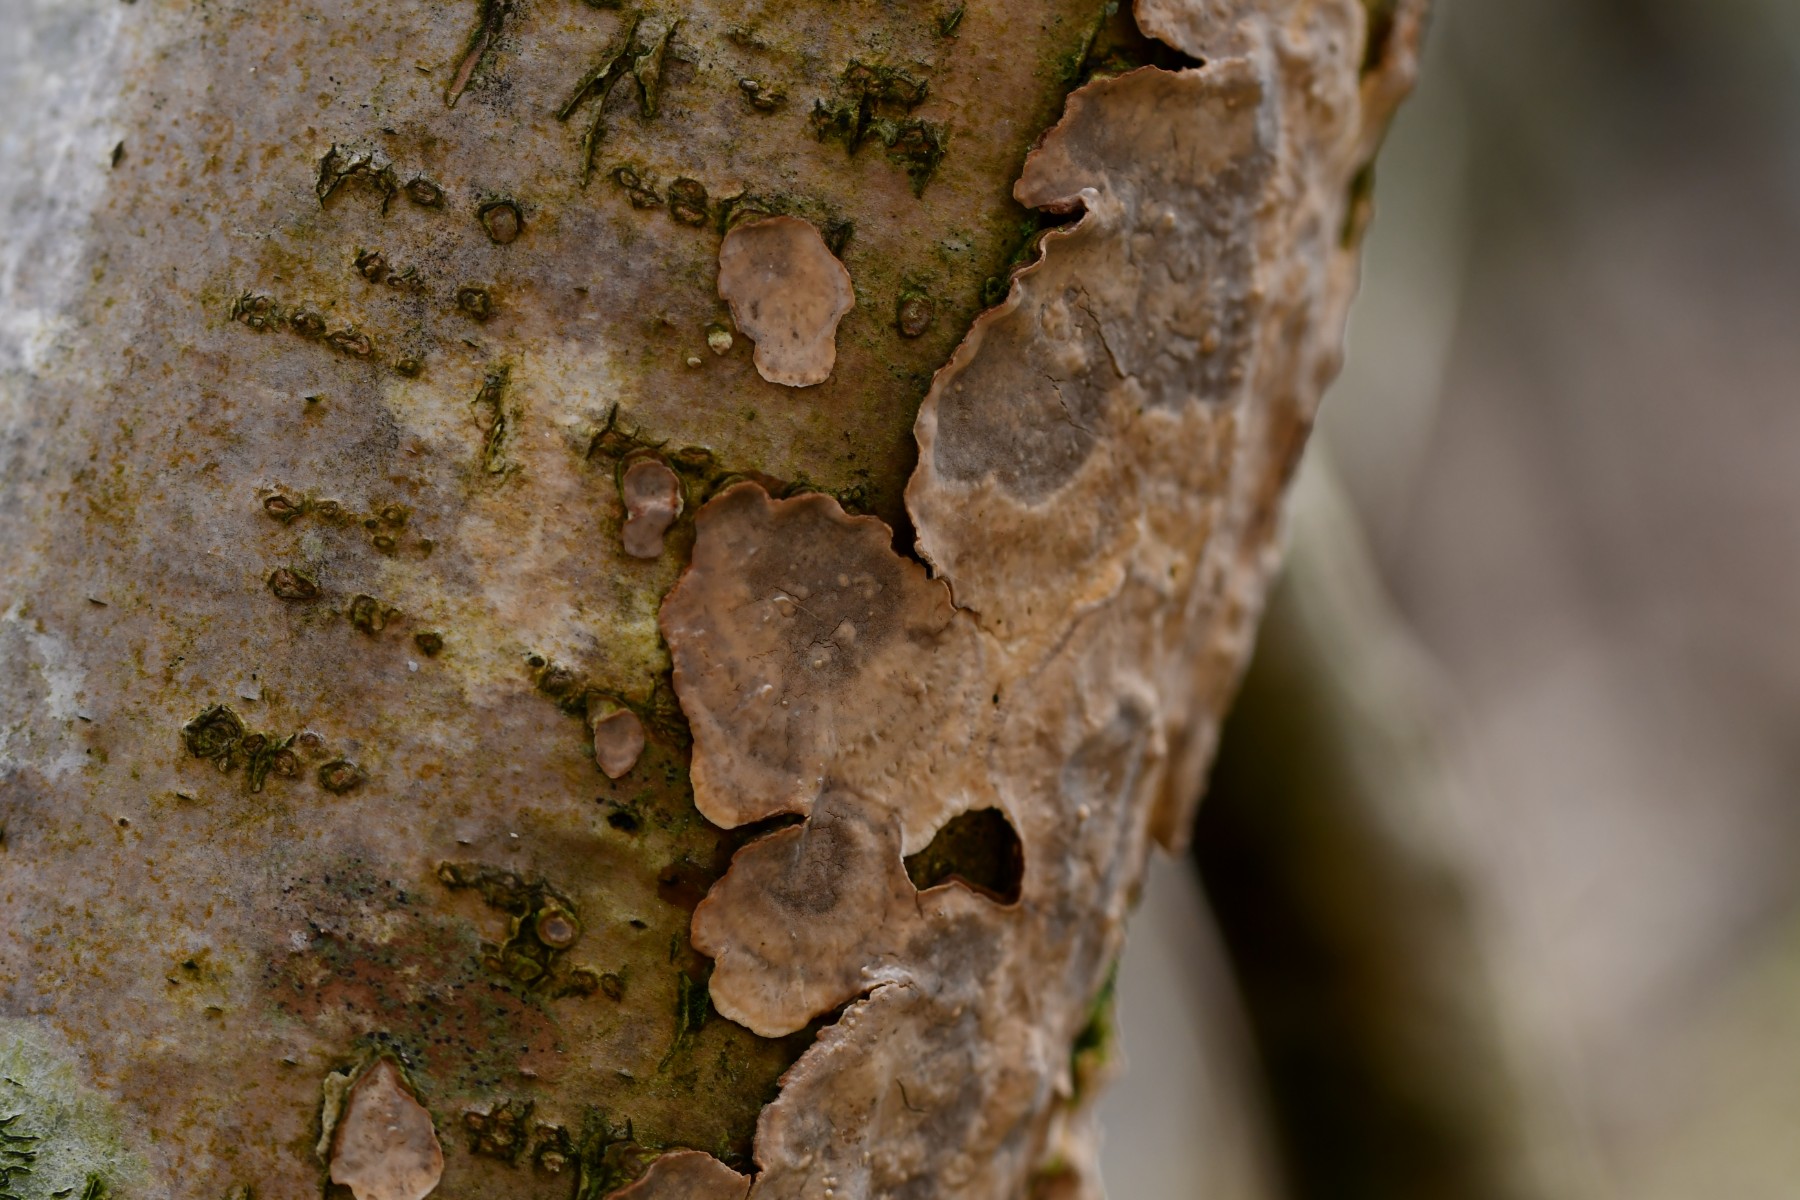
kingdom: Fungi
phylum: Basidiomycota
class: Agaricomycetes
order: Russulales
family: Stereaceae
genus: Stereum
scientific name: Stereum rugosum
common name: rynket lædersvamp
